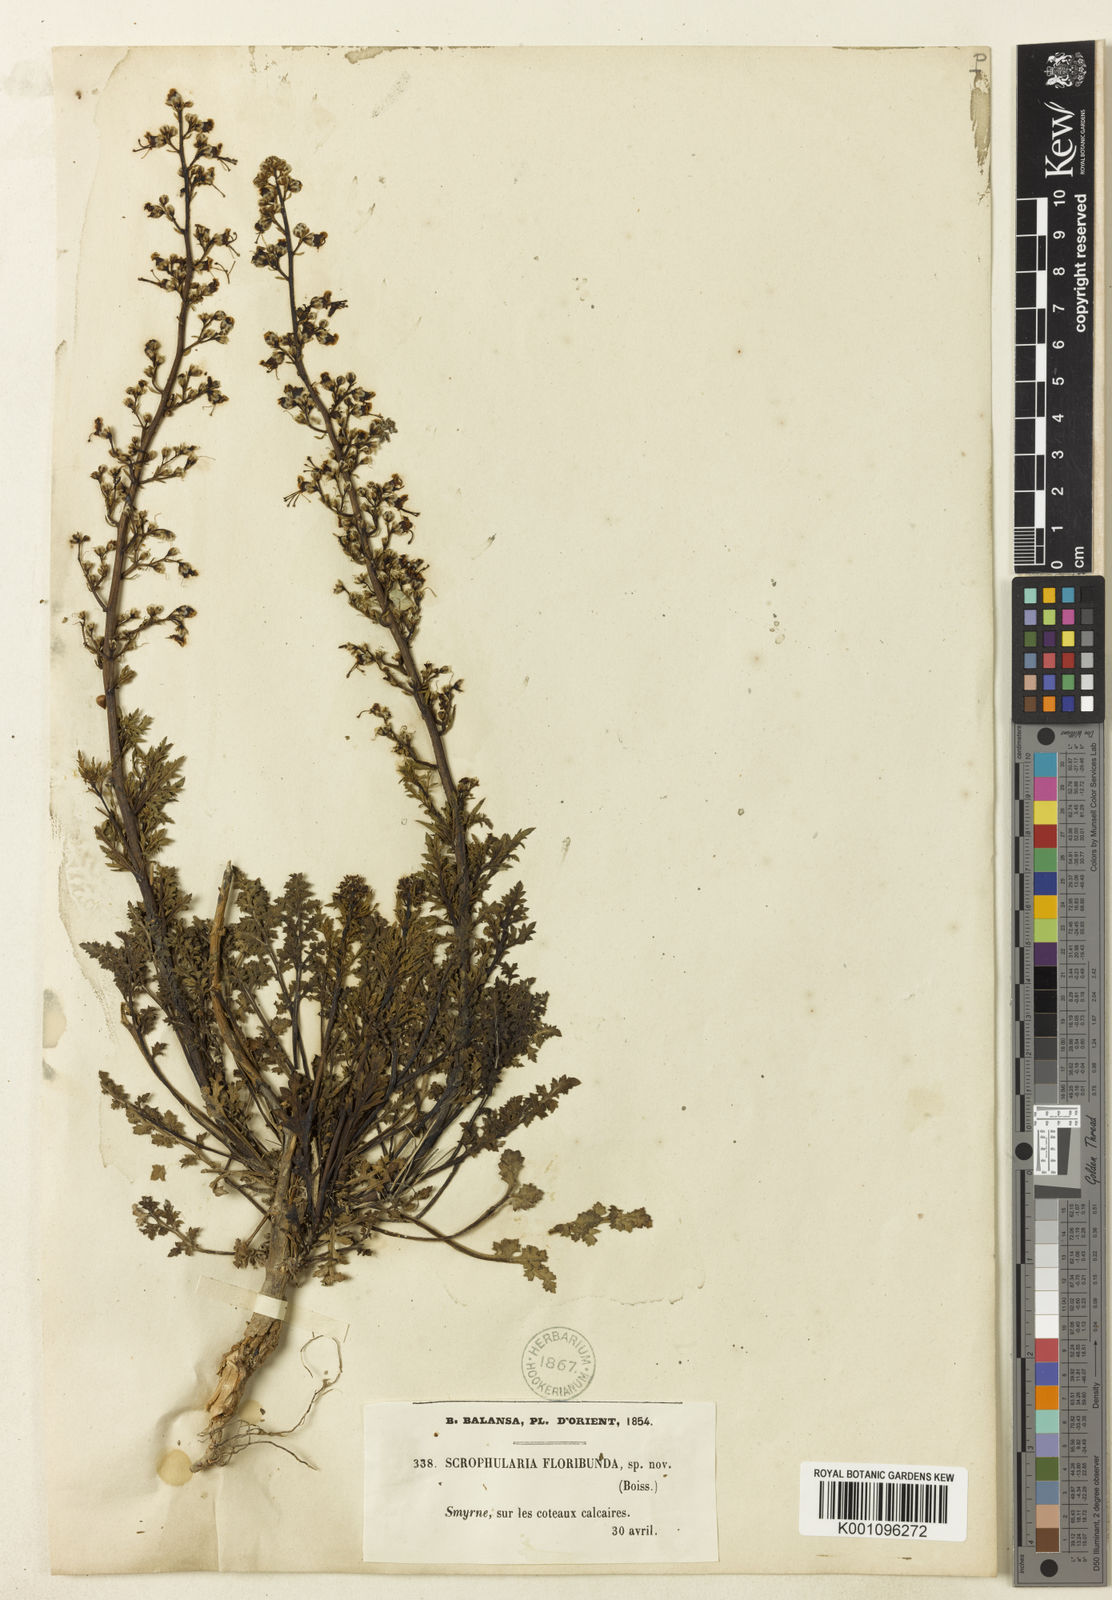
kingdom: Plantae
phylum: Tracheophyta
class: Magnoliopsida
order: Lamiales
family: Scrophulariaceae
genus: Scrophularia
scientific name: Scrophularia canina
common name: French figwort
